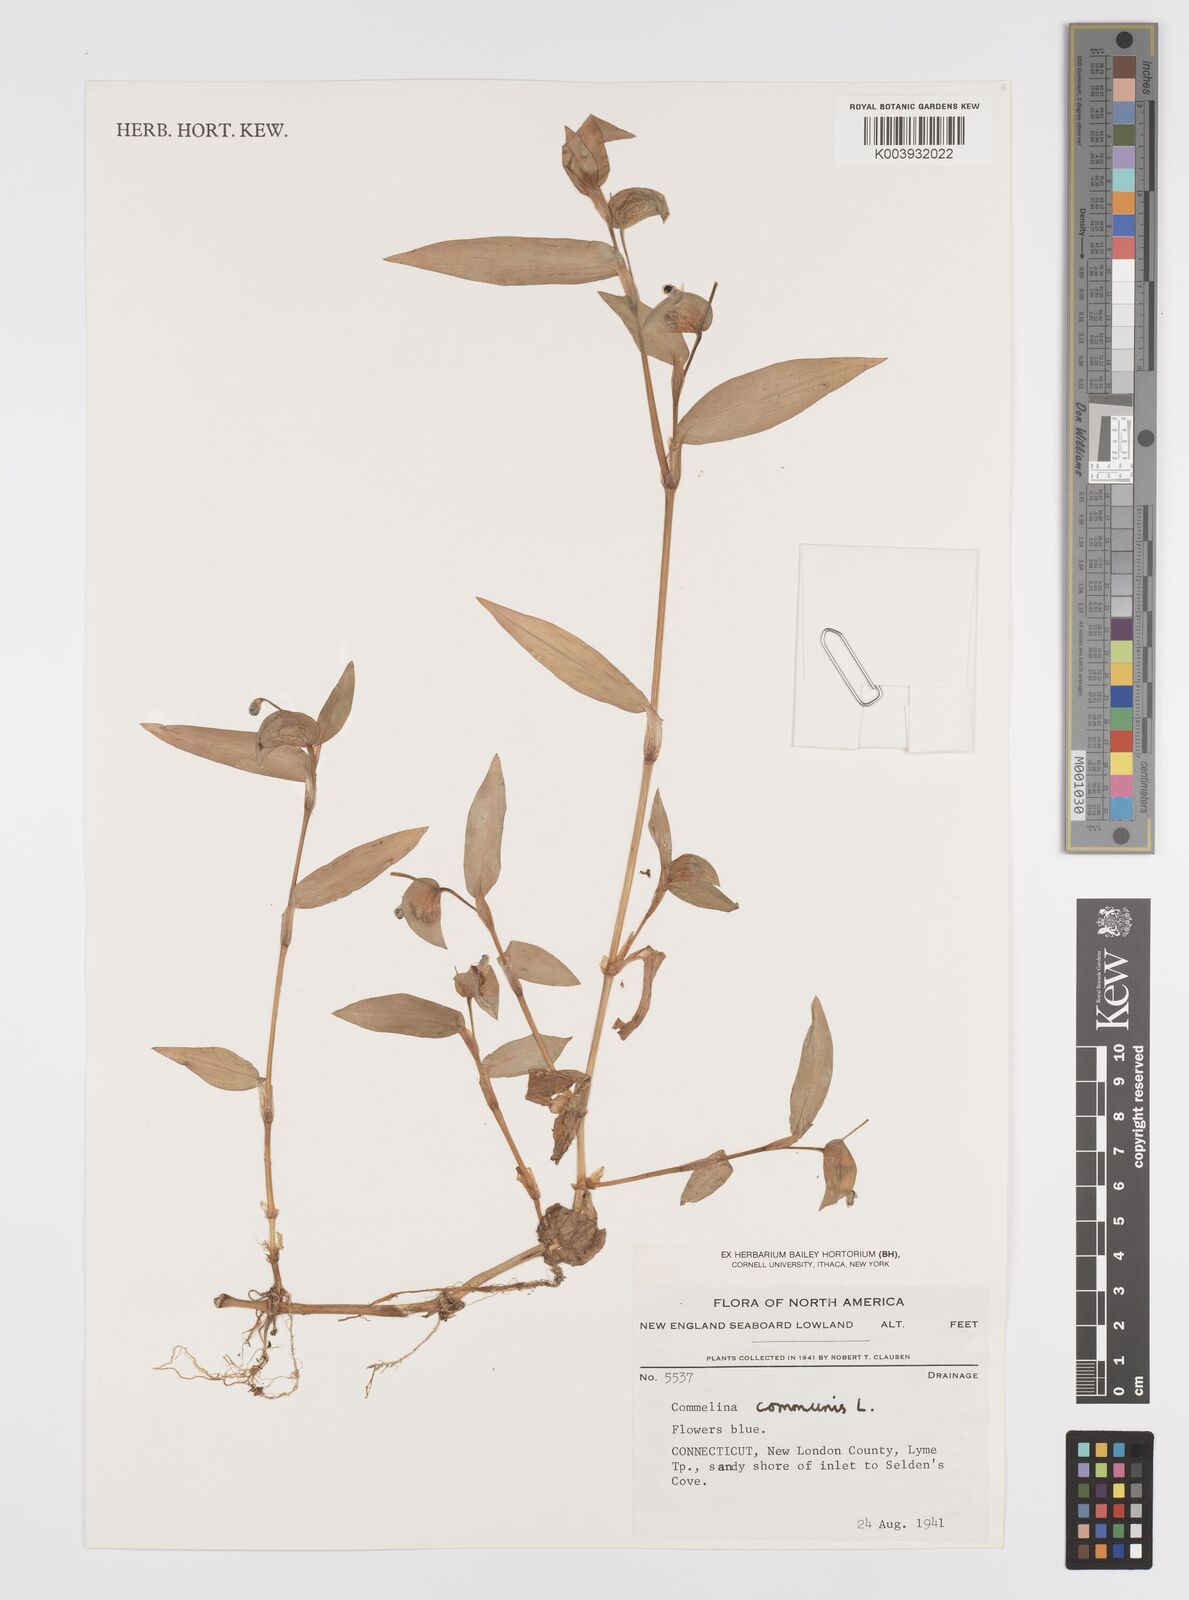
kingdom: Plantae
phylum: Tracheophyta
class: Liliopsida
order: Commelinales
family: Commelinaceae
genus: Commelina
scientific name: Commelina communis
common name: Asiatic dayflower
